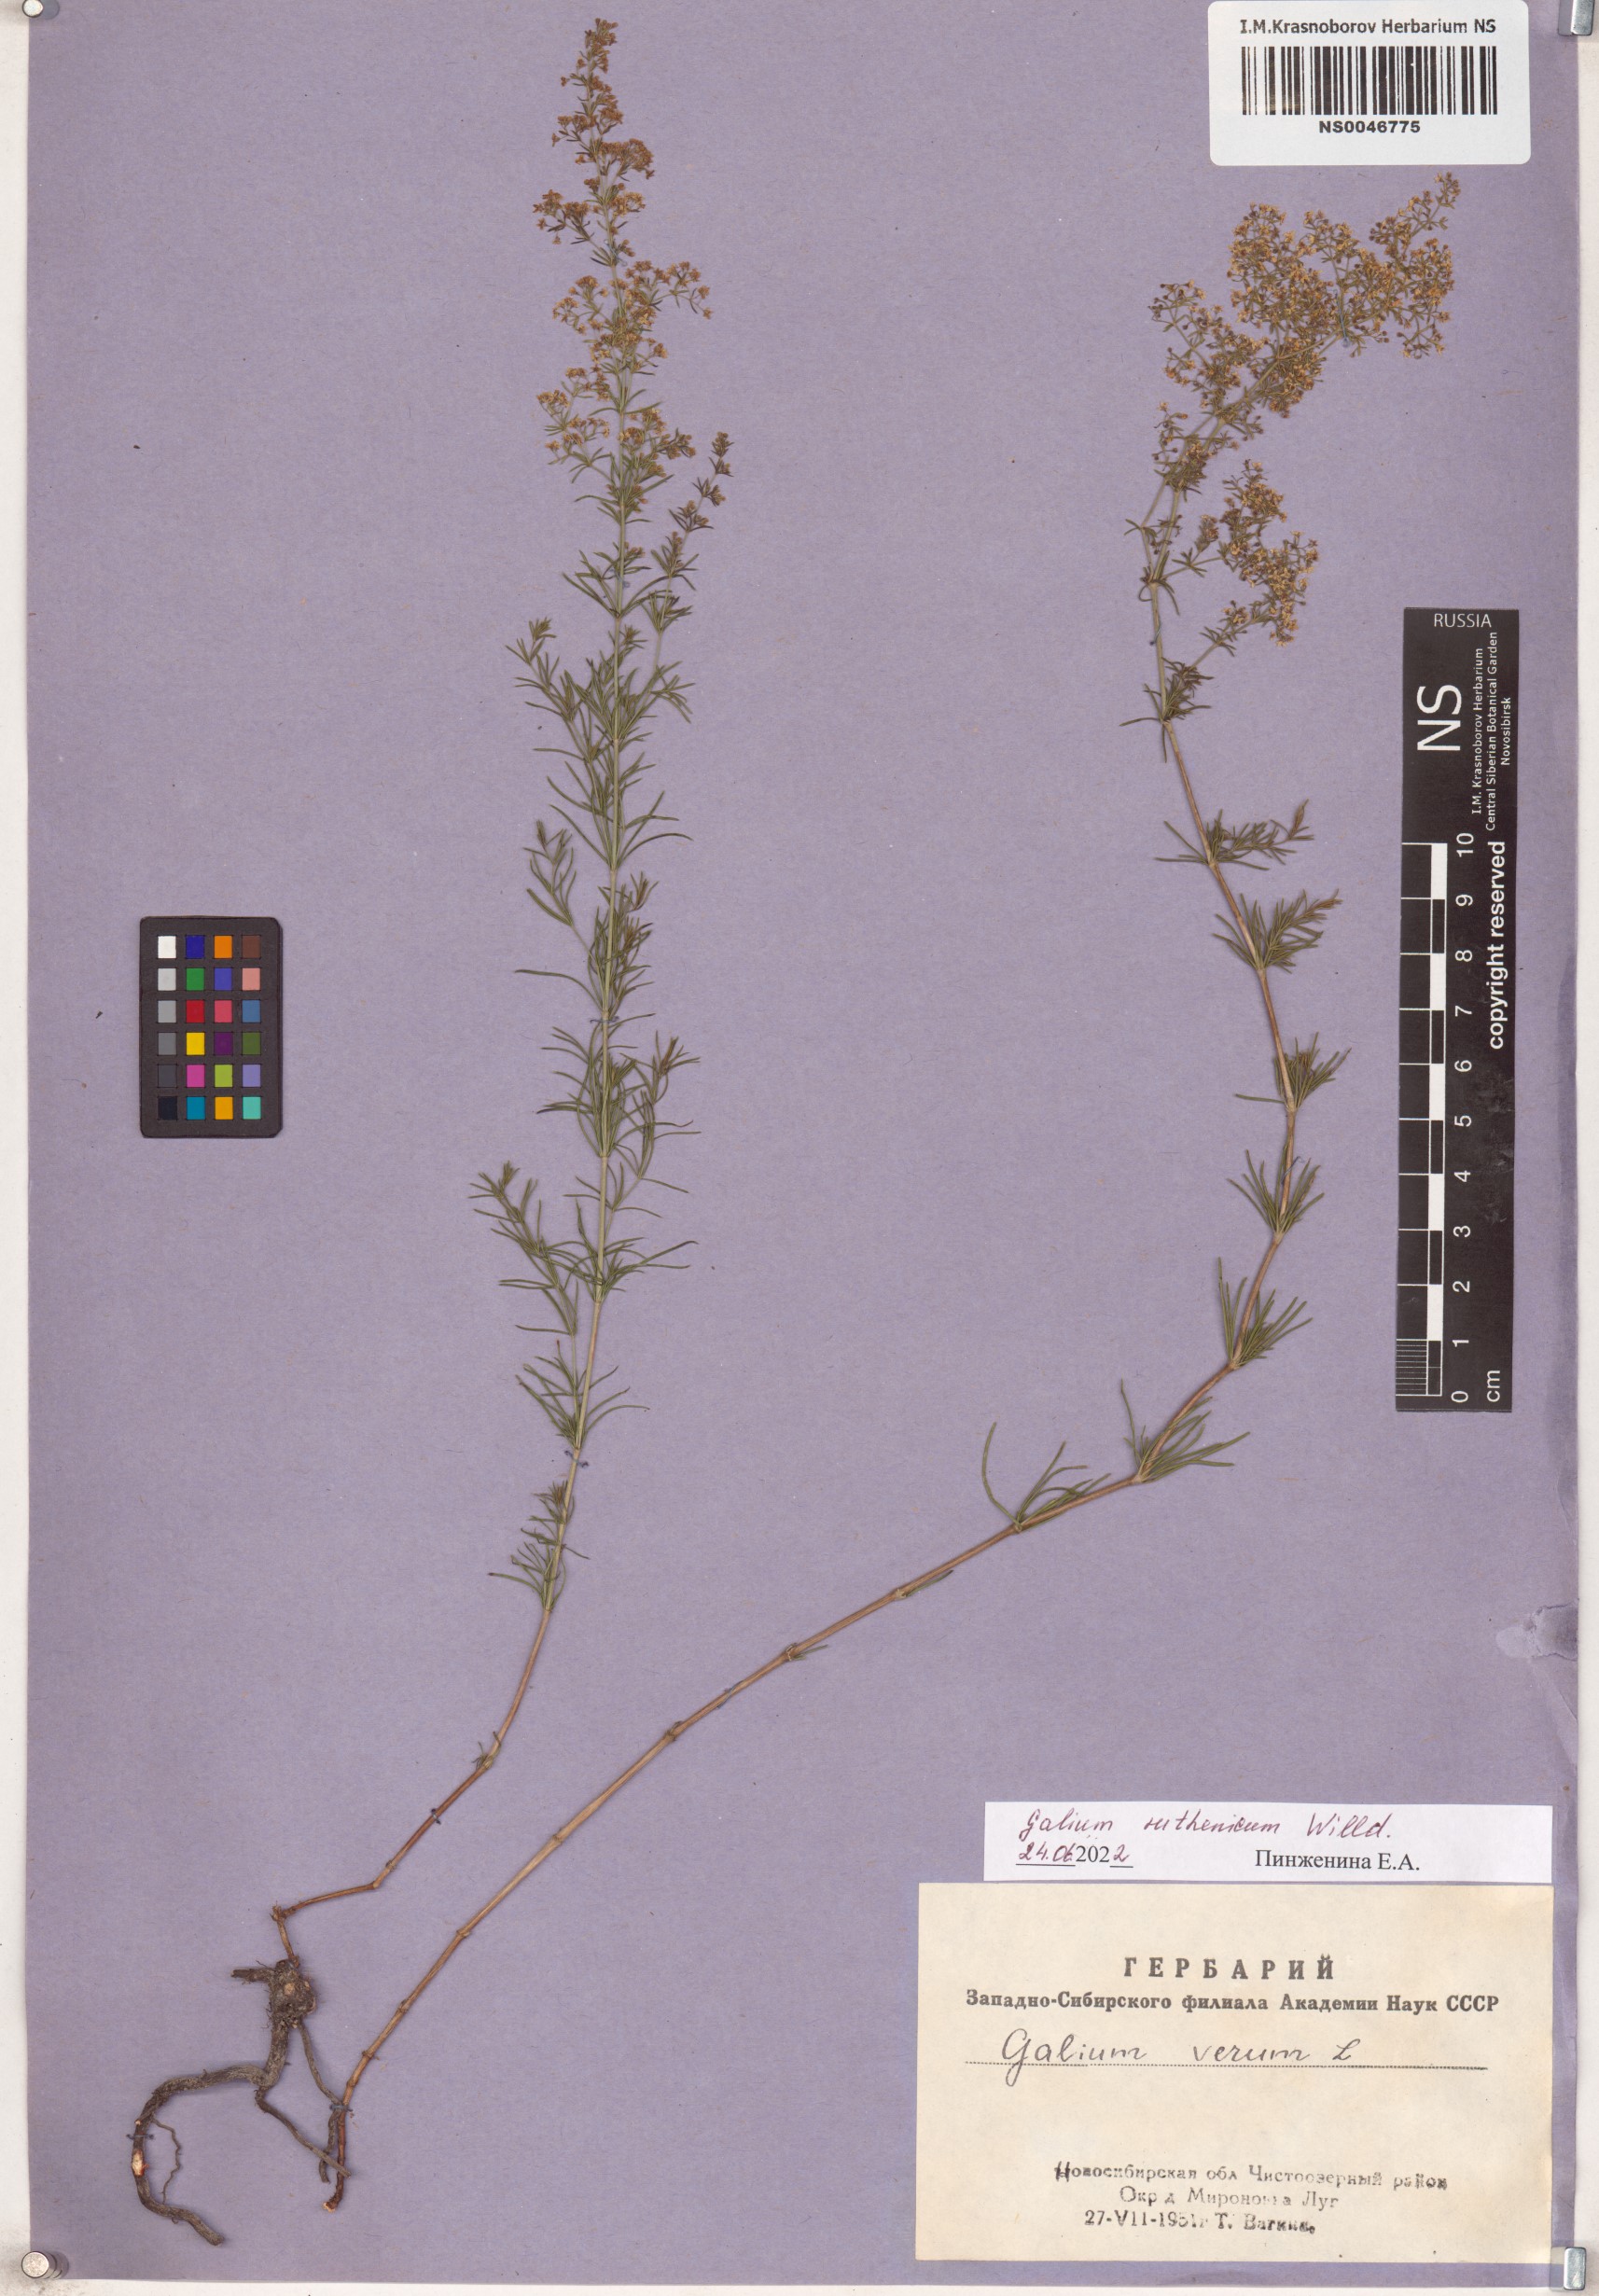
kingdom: Plantae
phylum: Tracheophyta
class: Magnoliopsida
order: Gentianales
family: Rubiaceae
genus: Galium
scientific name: Galium verum
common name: Lady's bedstraw
